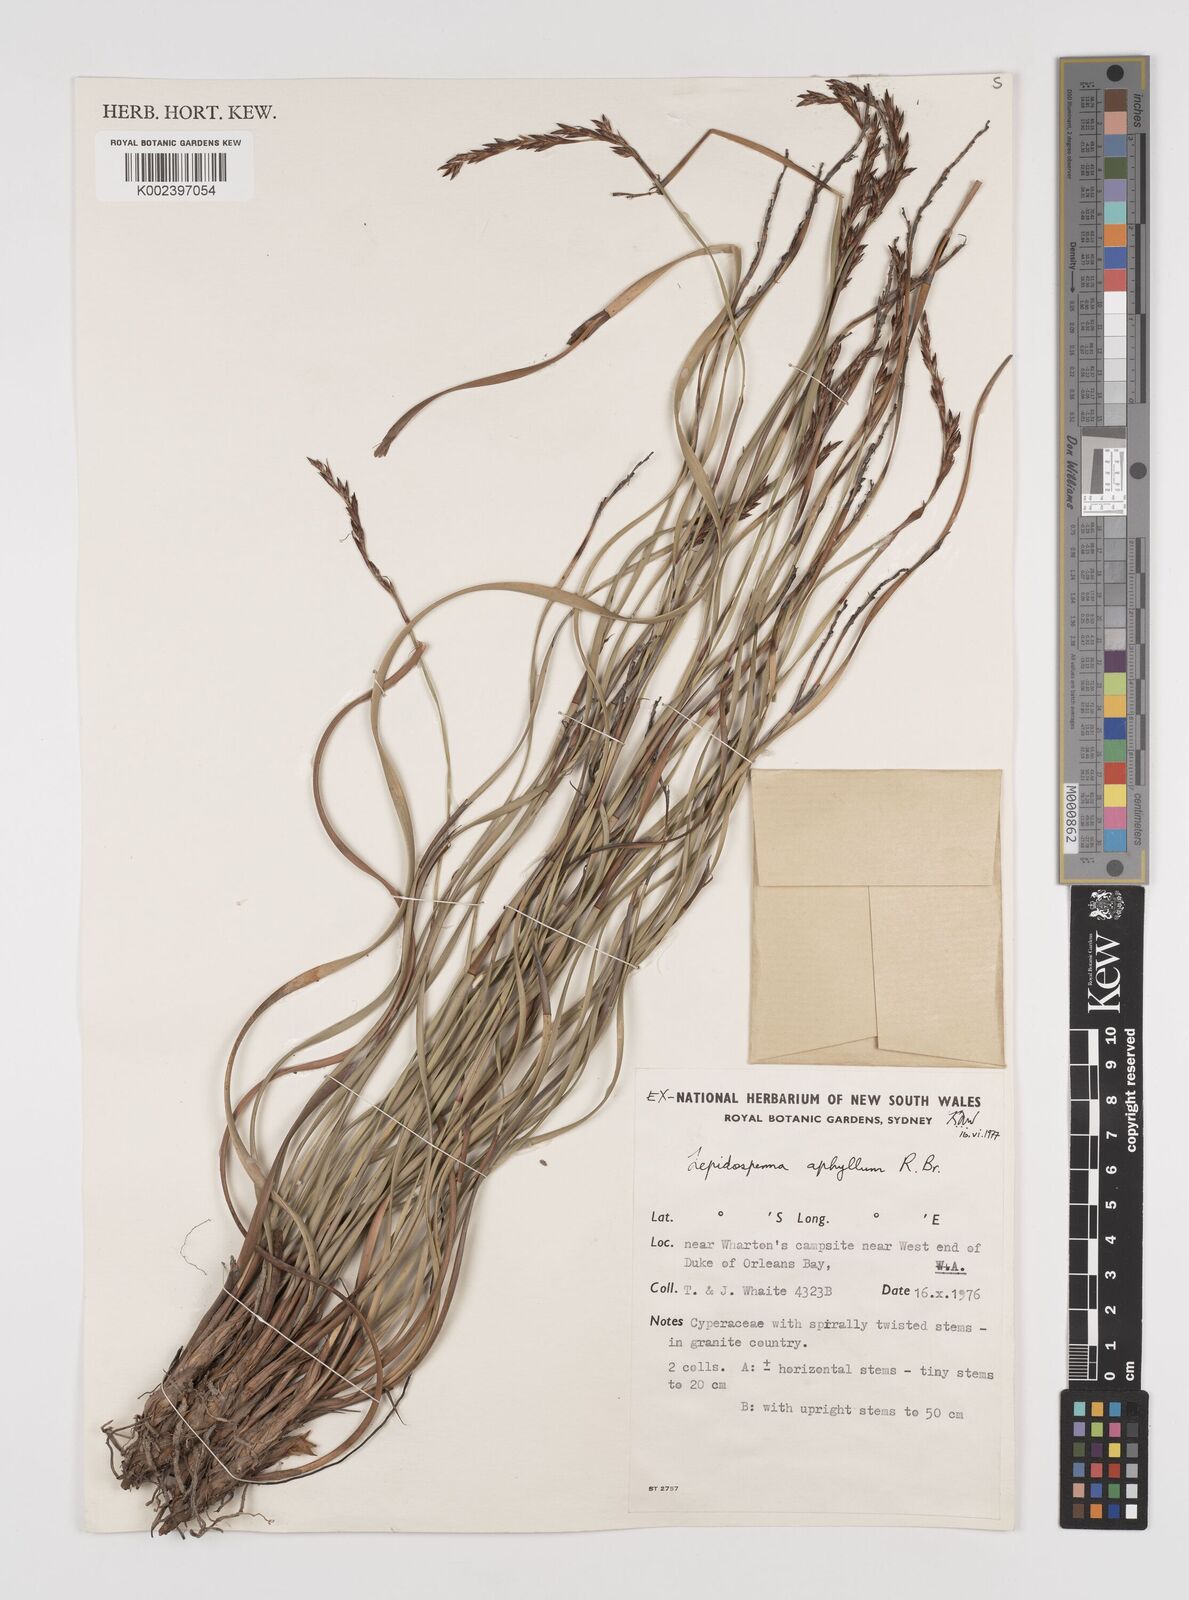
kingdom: Plantae
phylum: Tracheophyta
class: Liliopsida
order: Poales
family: Cyperaceae
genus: Lepidosperma
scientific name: Lepidosperma aphyllum
